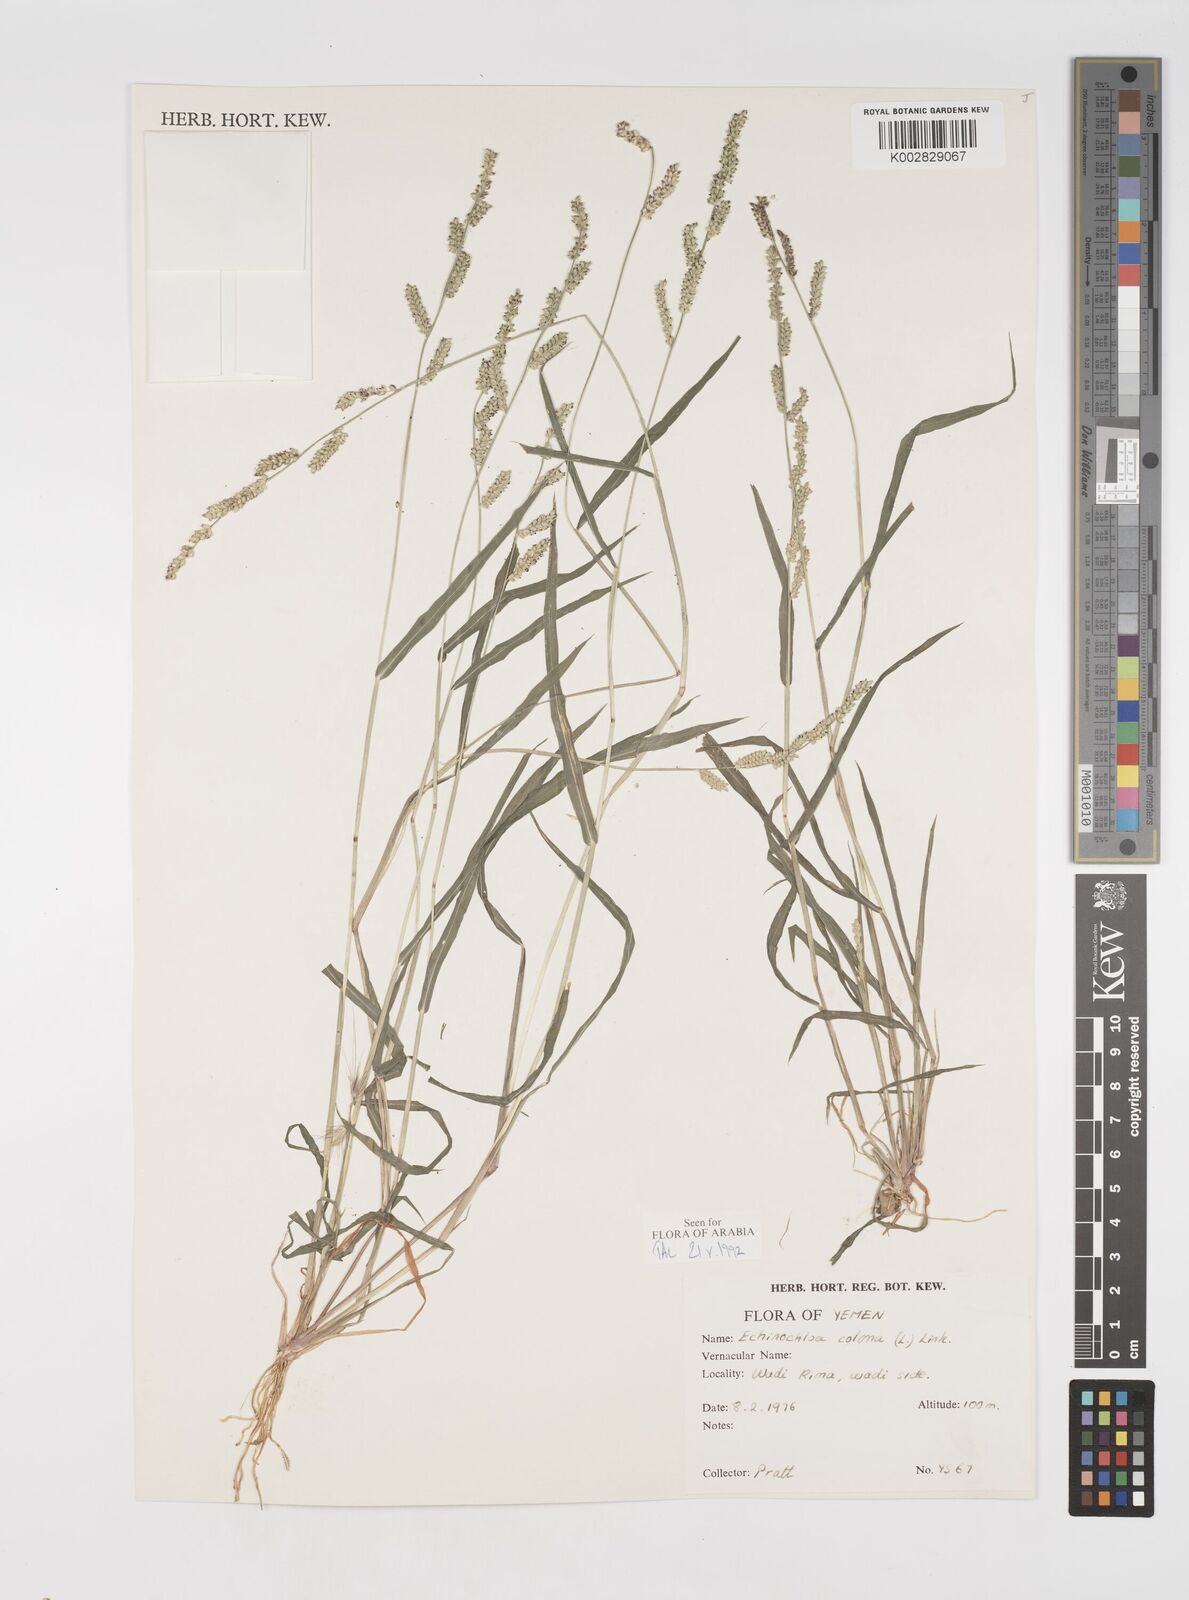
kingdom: Plantae
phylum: Tracheophyta
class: Liliopsida
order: Poales
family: Poaceae
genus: Echinochloa
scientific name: Echinochloa colonum
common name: Jungle rice
